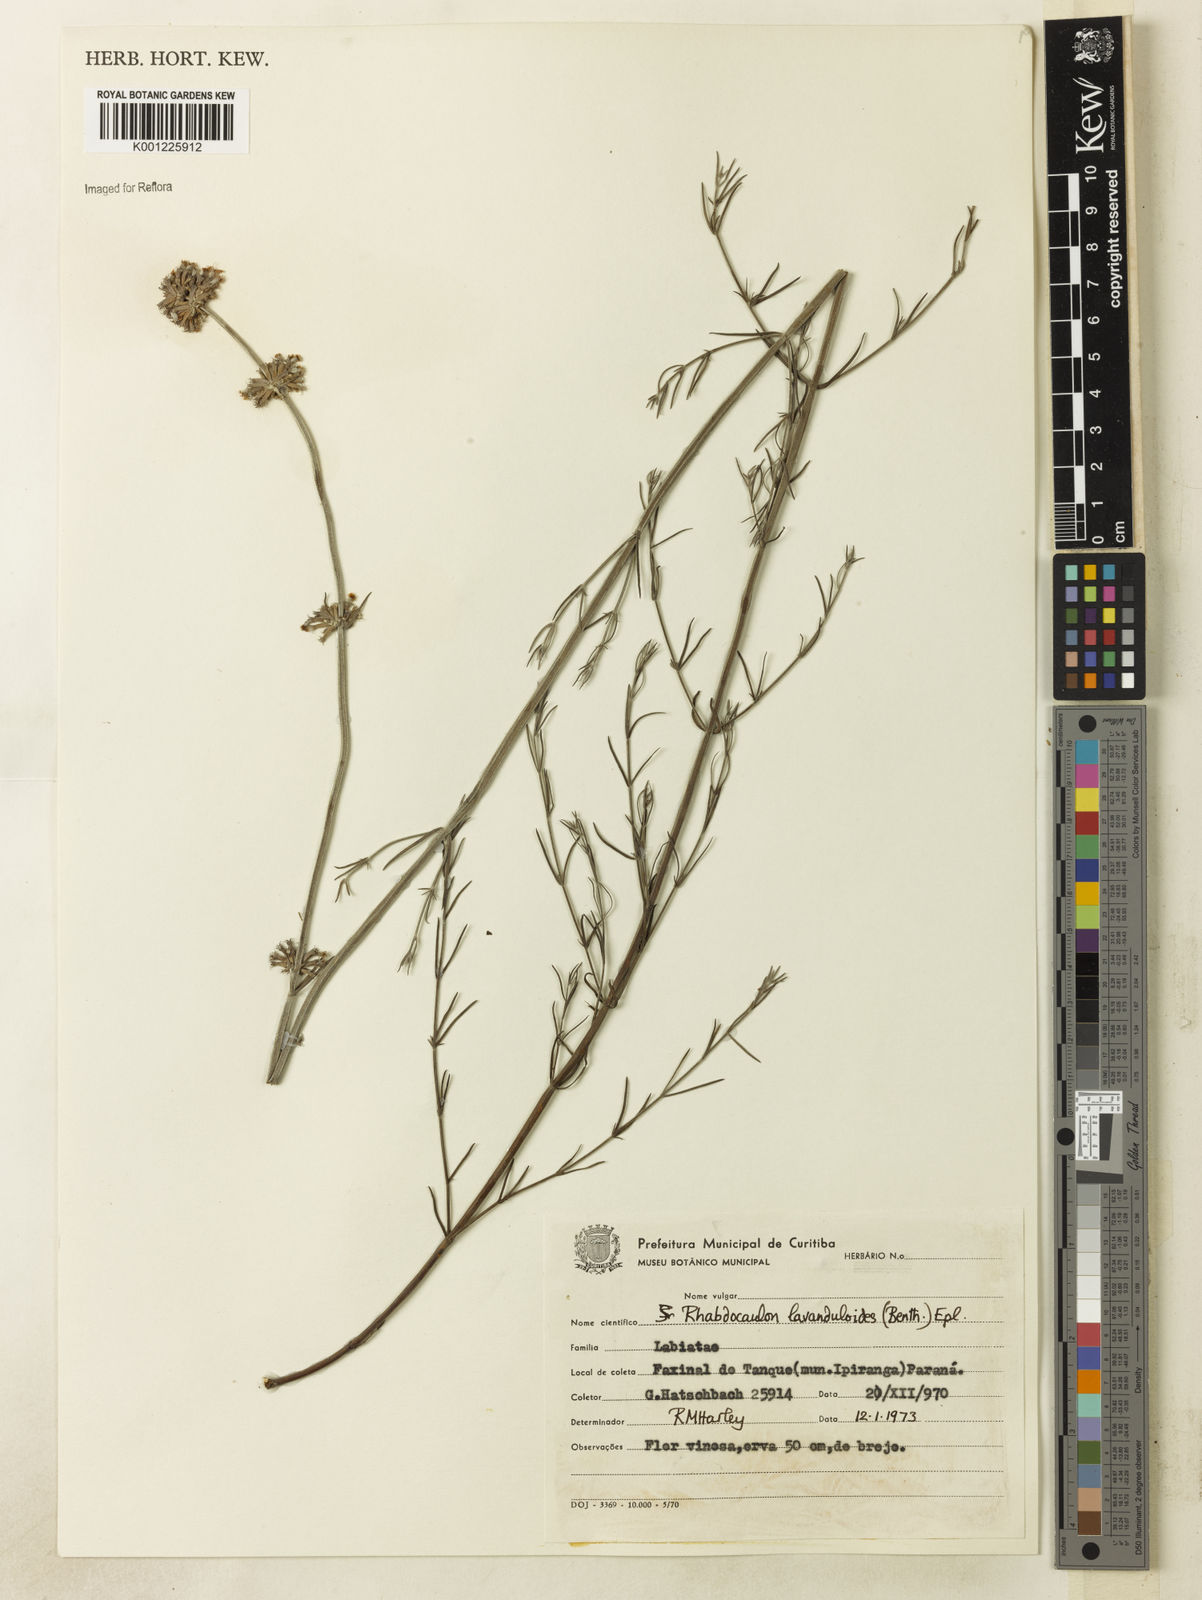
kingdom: Plantae
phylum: Tracheophyta
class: Magnoliopsida
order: Lamiales
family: Lamiaceae
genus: Rhabdocaulon
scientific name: Rhabdocaulon lavanduloides
